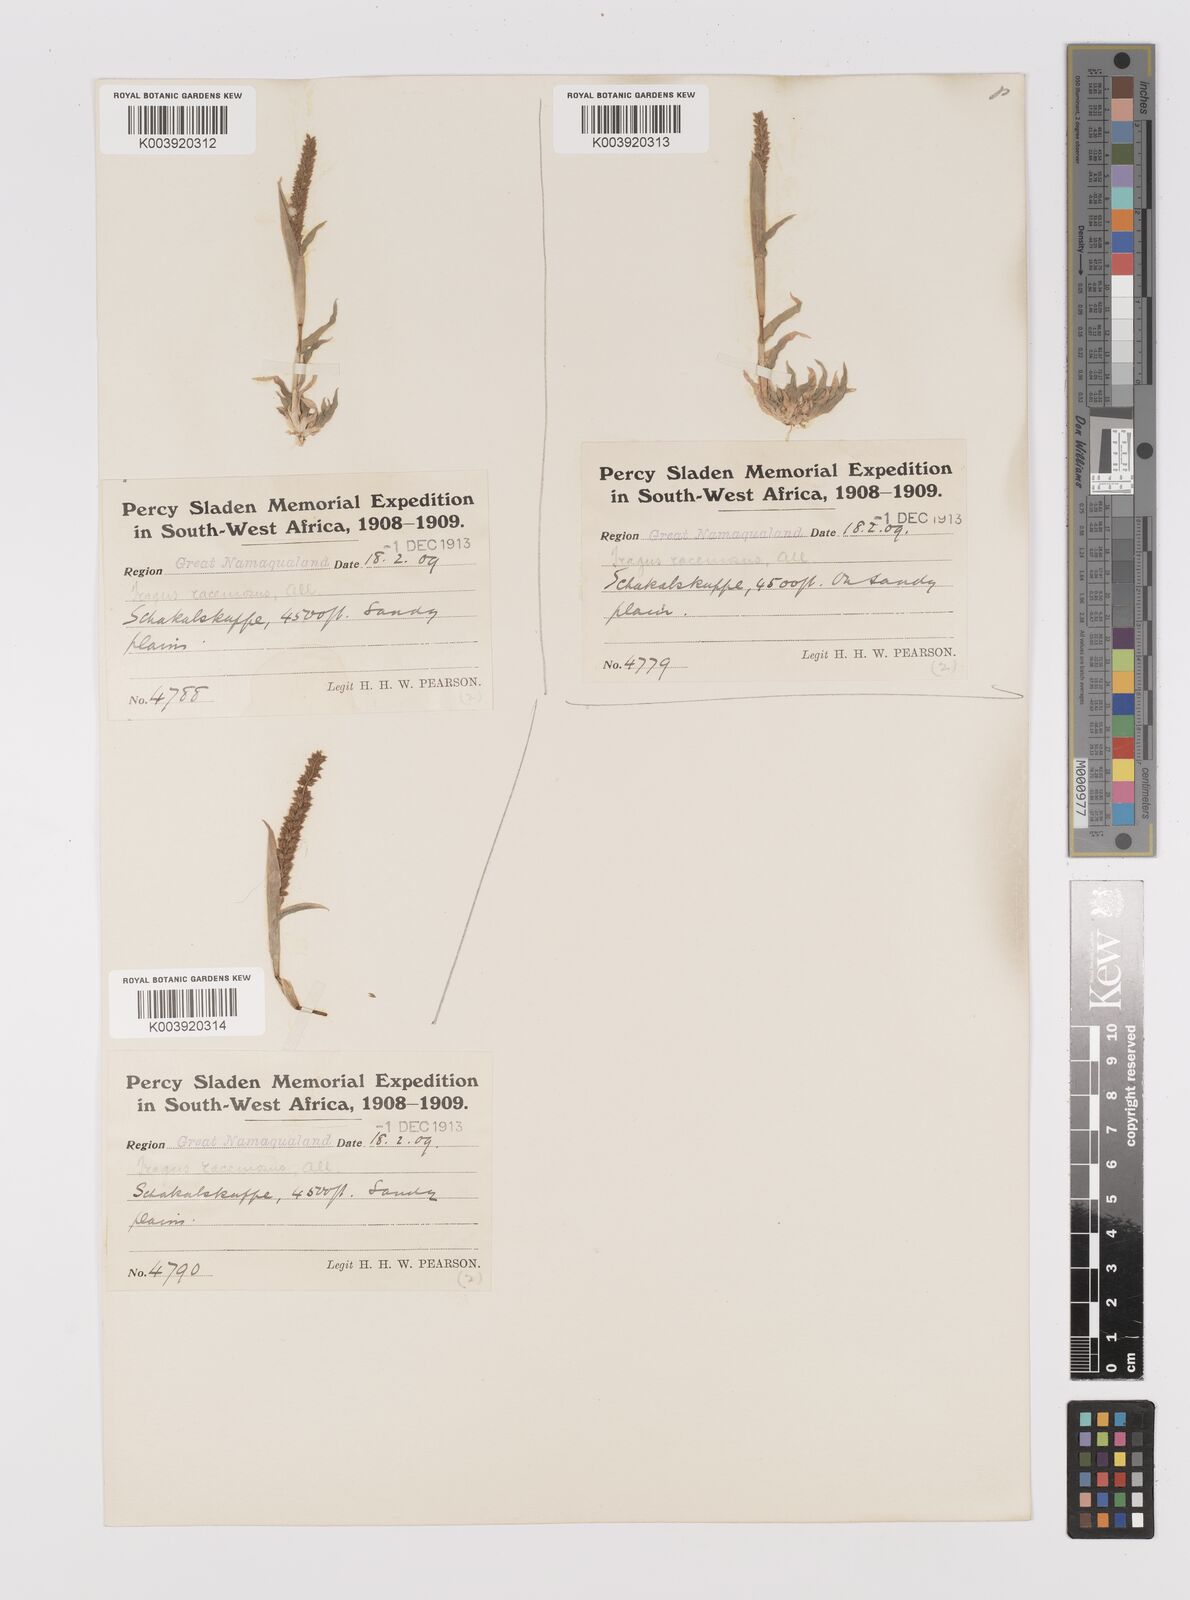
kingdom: Plantae
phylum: Tracheophyta
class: Liliopsida
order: Poales
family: Poaceae
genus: Tragus
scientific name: Tragus berteronianus
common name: African bur-grass
